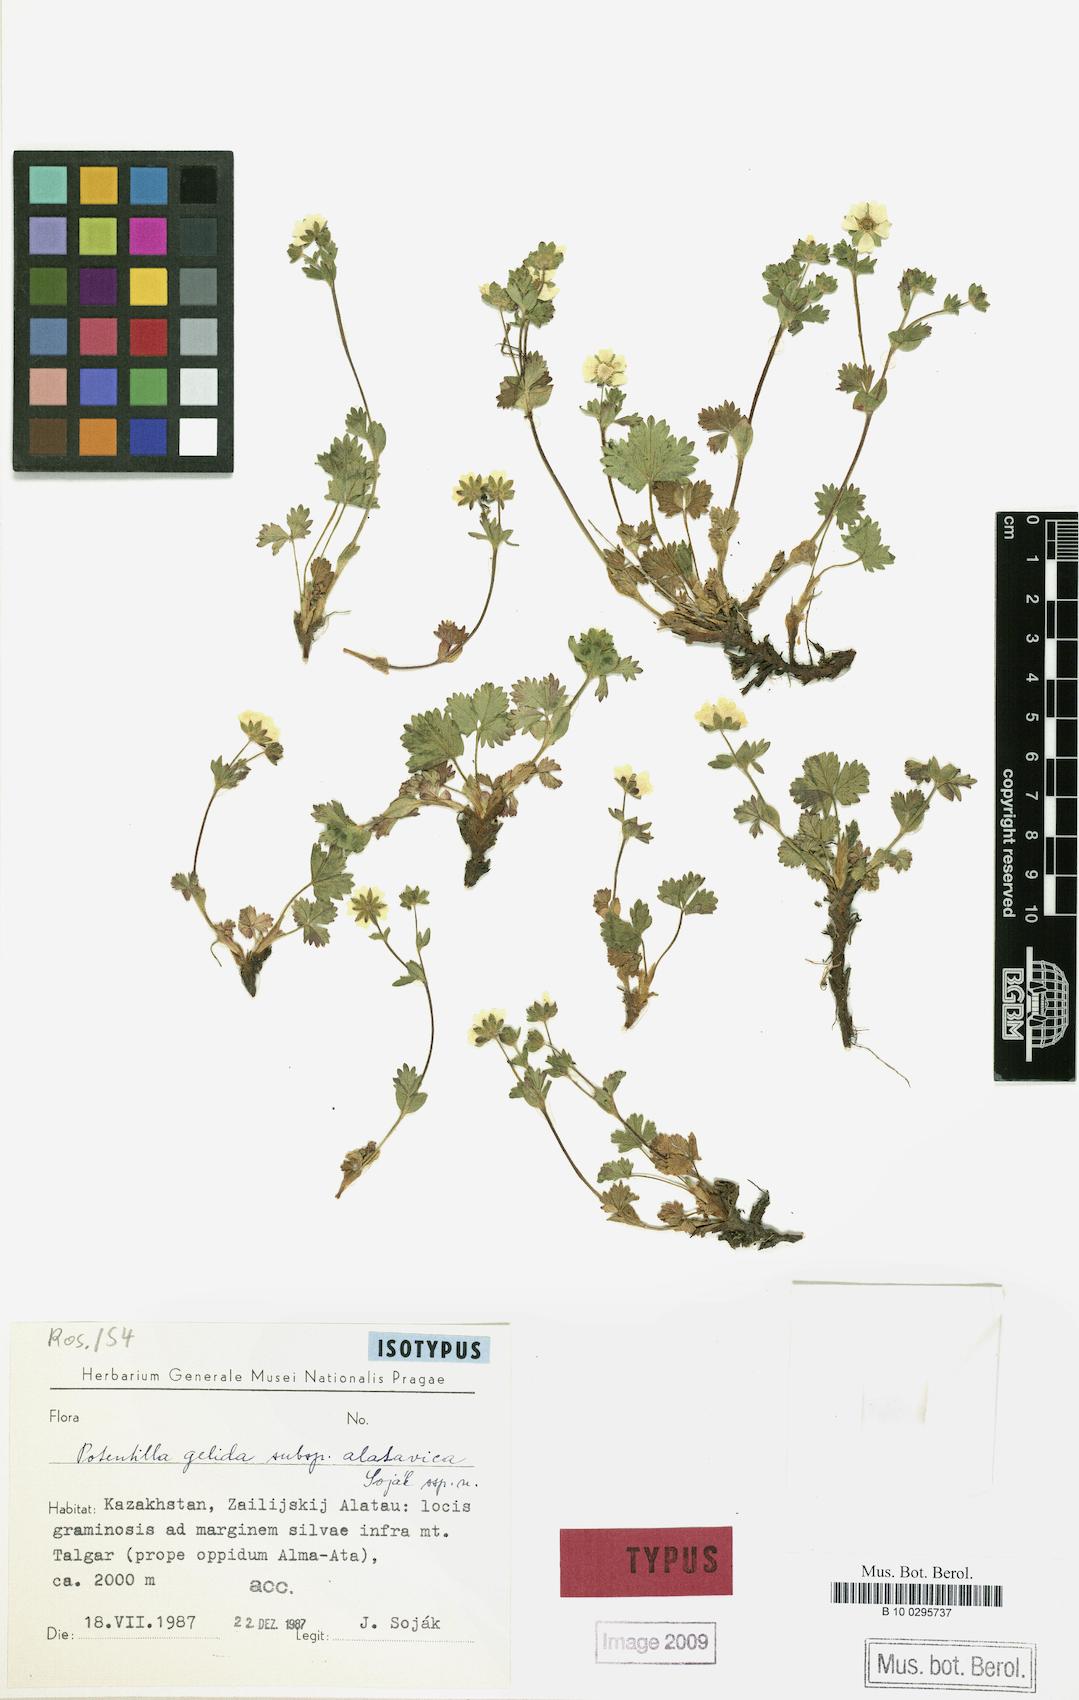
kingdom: Plantae
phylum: Tracheophyta
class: Magnoliopsida
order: Rosales
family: Rosaceae
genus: Potentilla
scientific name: Potentilla
